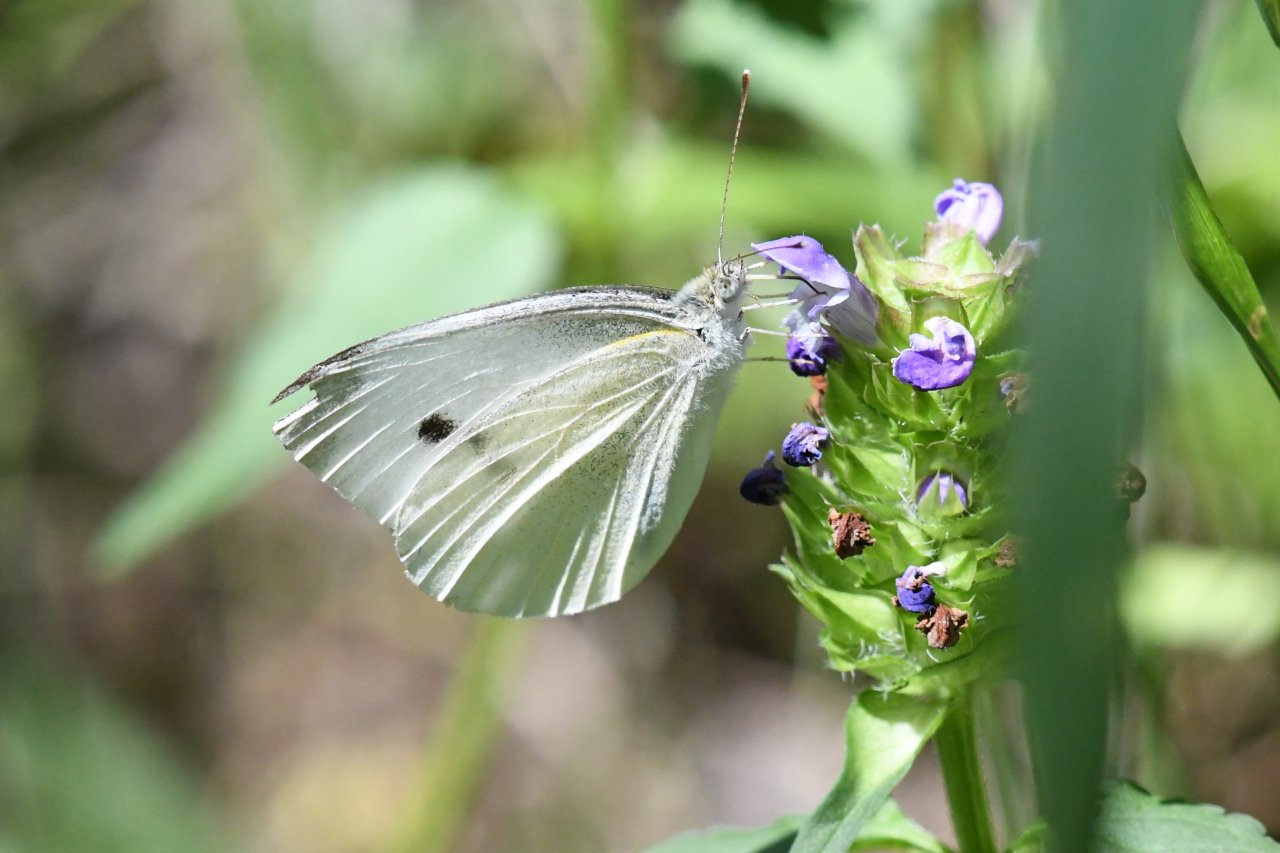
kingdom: Animalia
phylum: Arthropoda
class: Insecta
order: Lepidoptera
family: Pieridae
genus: Pieris
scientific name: Pieris rapae
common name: Cabbage White
